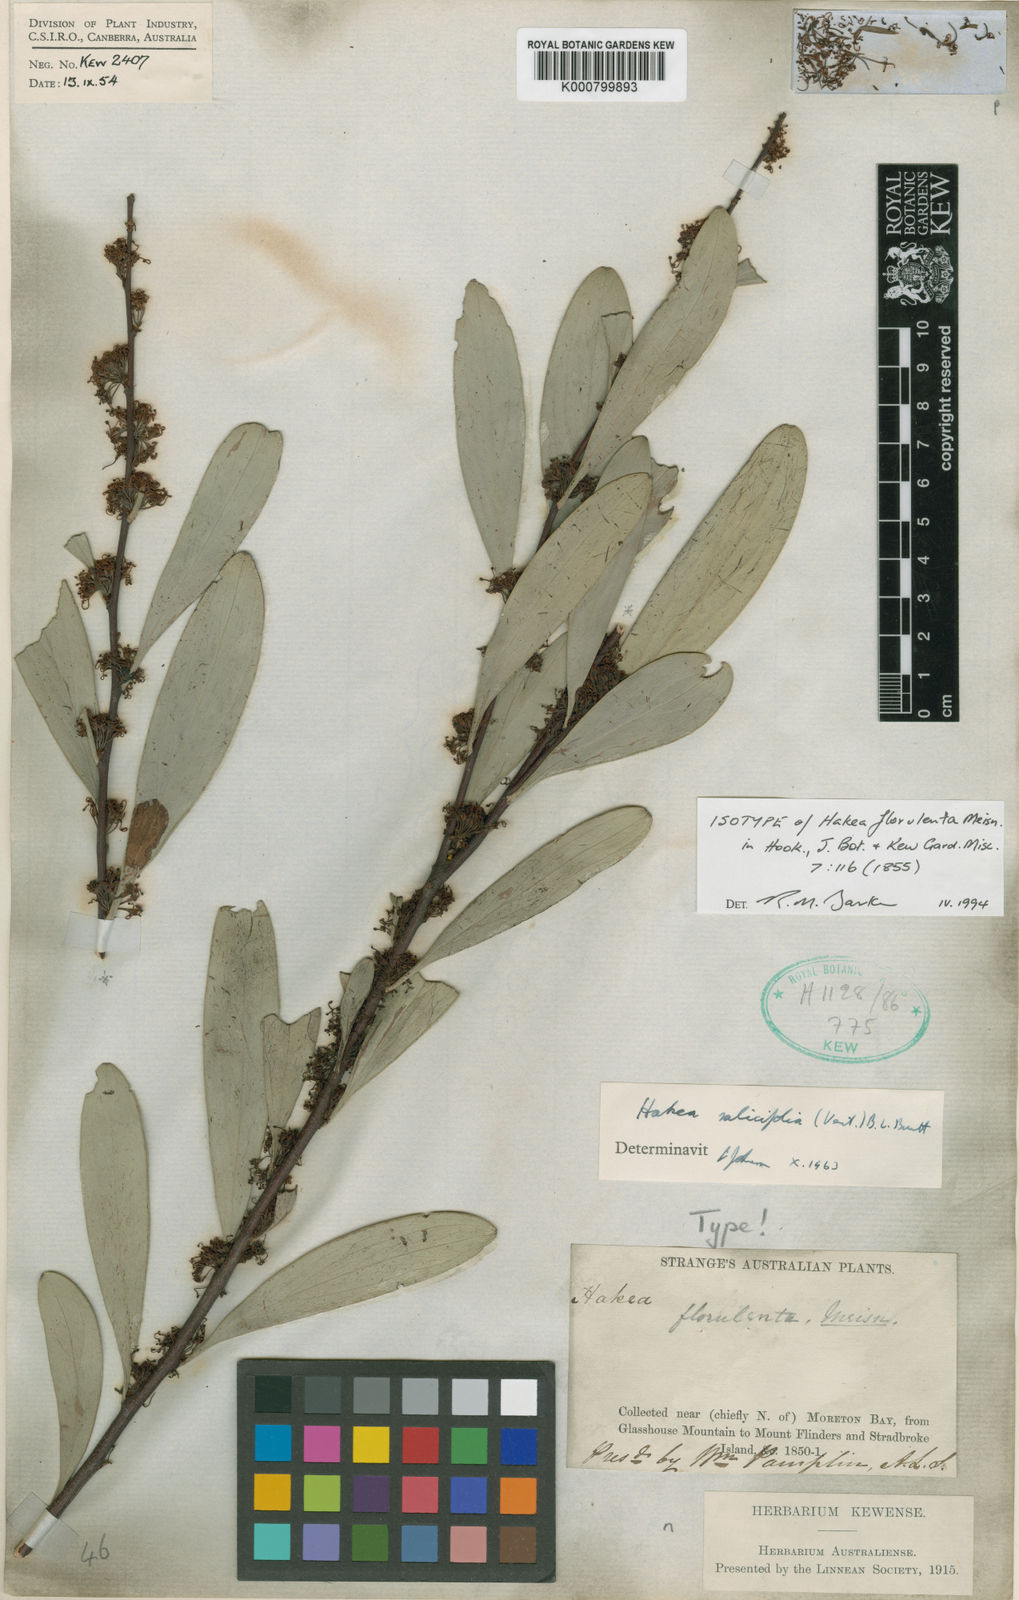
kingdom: Plantae
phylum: Tracheophyta
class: Magnoliopsida
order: Proteales
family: Proteaceae
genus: Hakea
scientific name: Hakea florulenta
